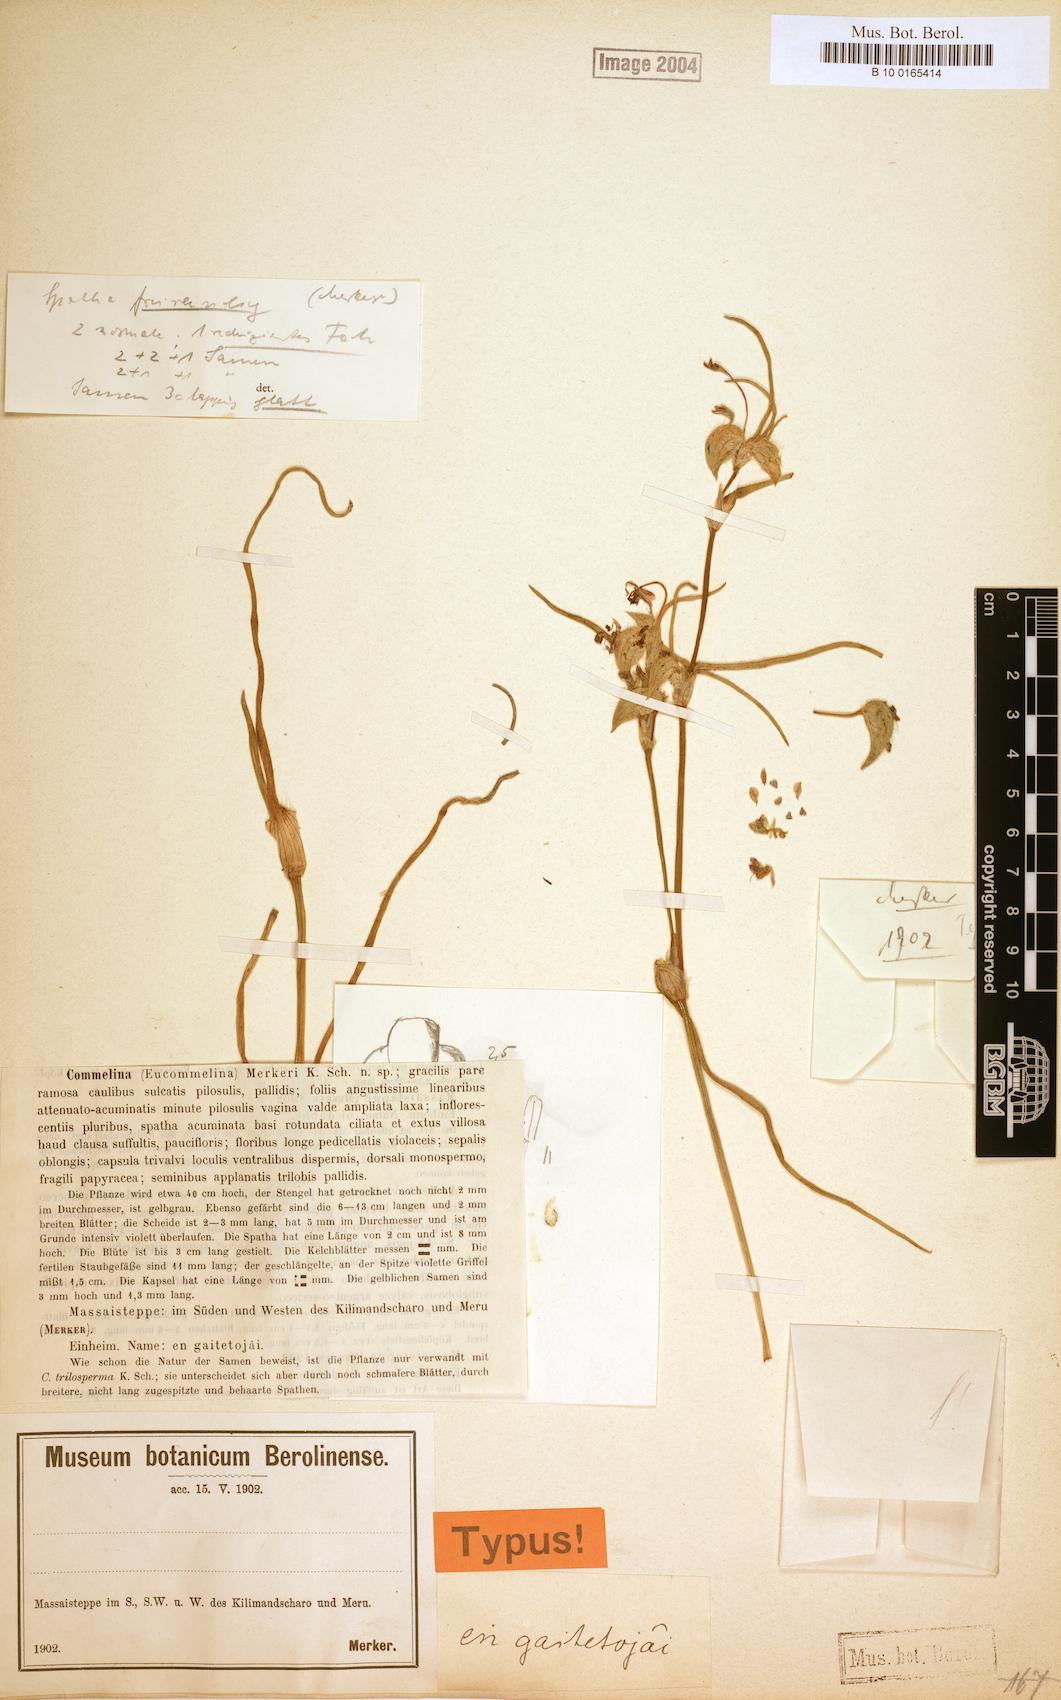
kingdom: Plantae
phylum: Tracheophyta
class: Liliopsida
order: Commelinales
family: Commelinaceae
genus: Commelina
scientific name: Commelina merkeri
